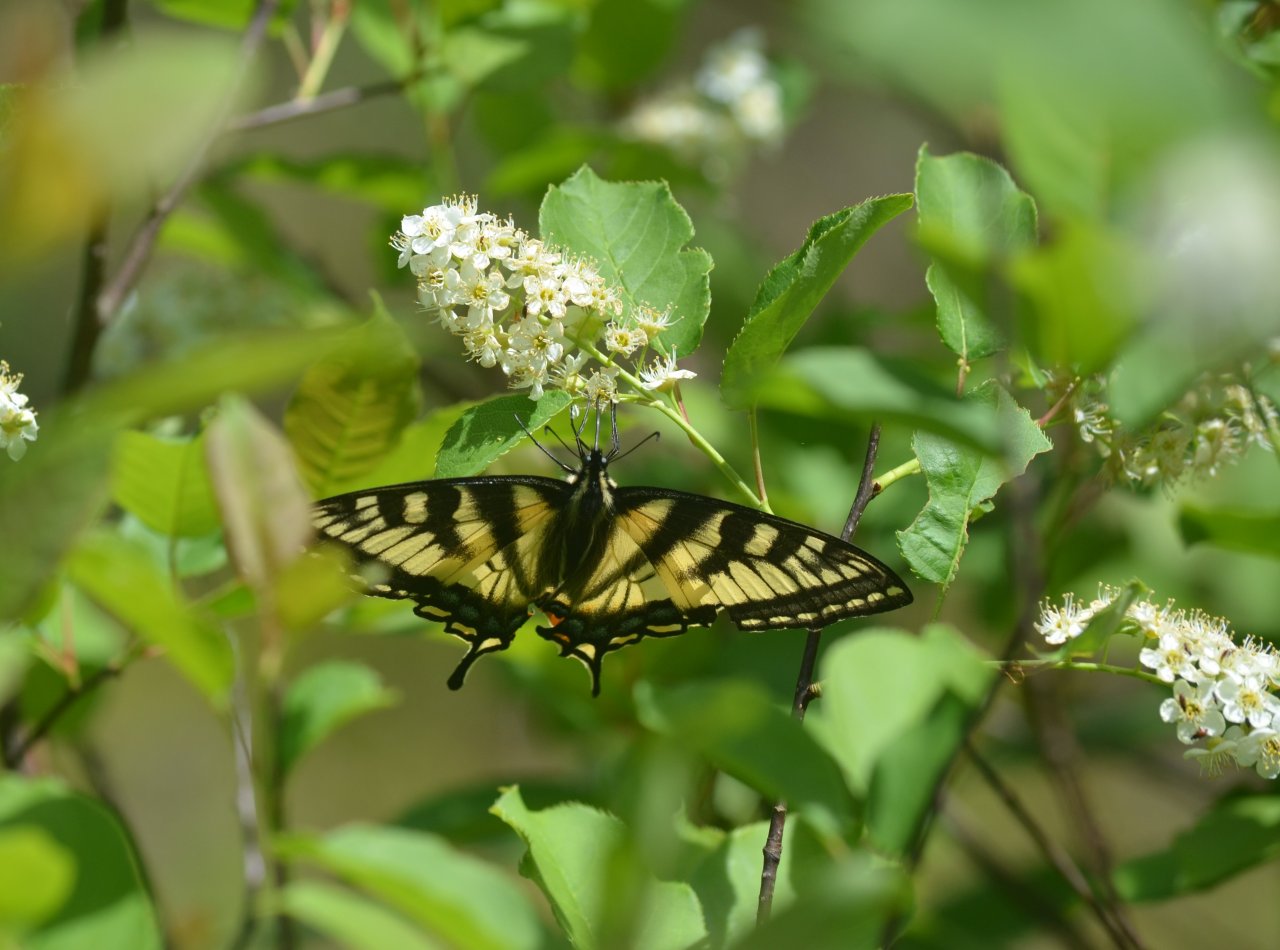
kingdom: Animalia
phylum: Arthropoda
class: Insecta
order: Lepidoptera
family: Papilionidae
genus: Pterourus
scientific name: Pterourus canadensis
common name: Canadian Tiger Swallowtail
